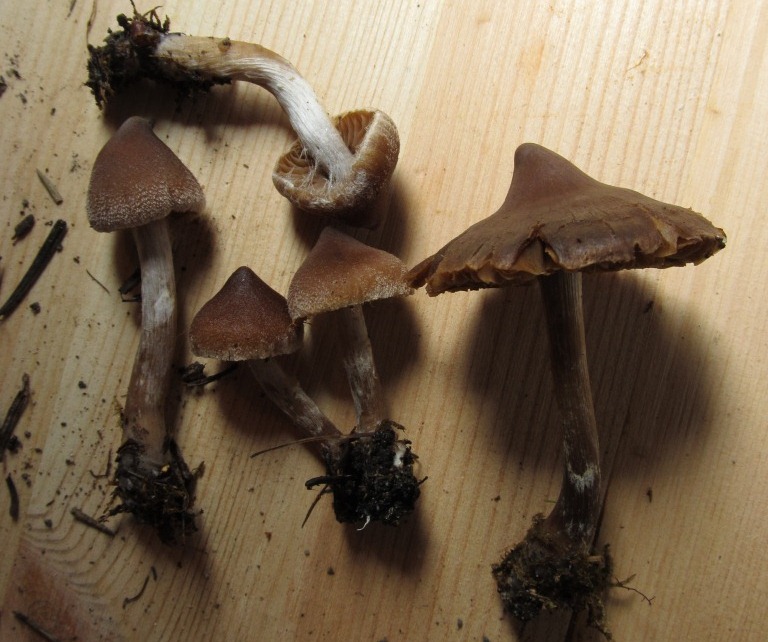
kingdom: Fungi
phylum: Basidiomycota
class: Agaricomycetes
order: Agaricales
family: Cortinariaceae
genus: Cortinarius
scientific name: Cortinarius comptulus
